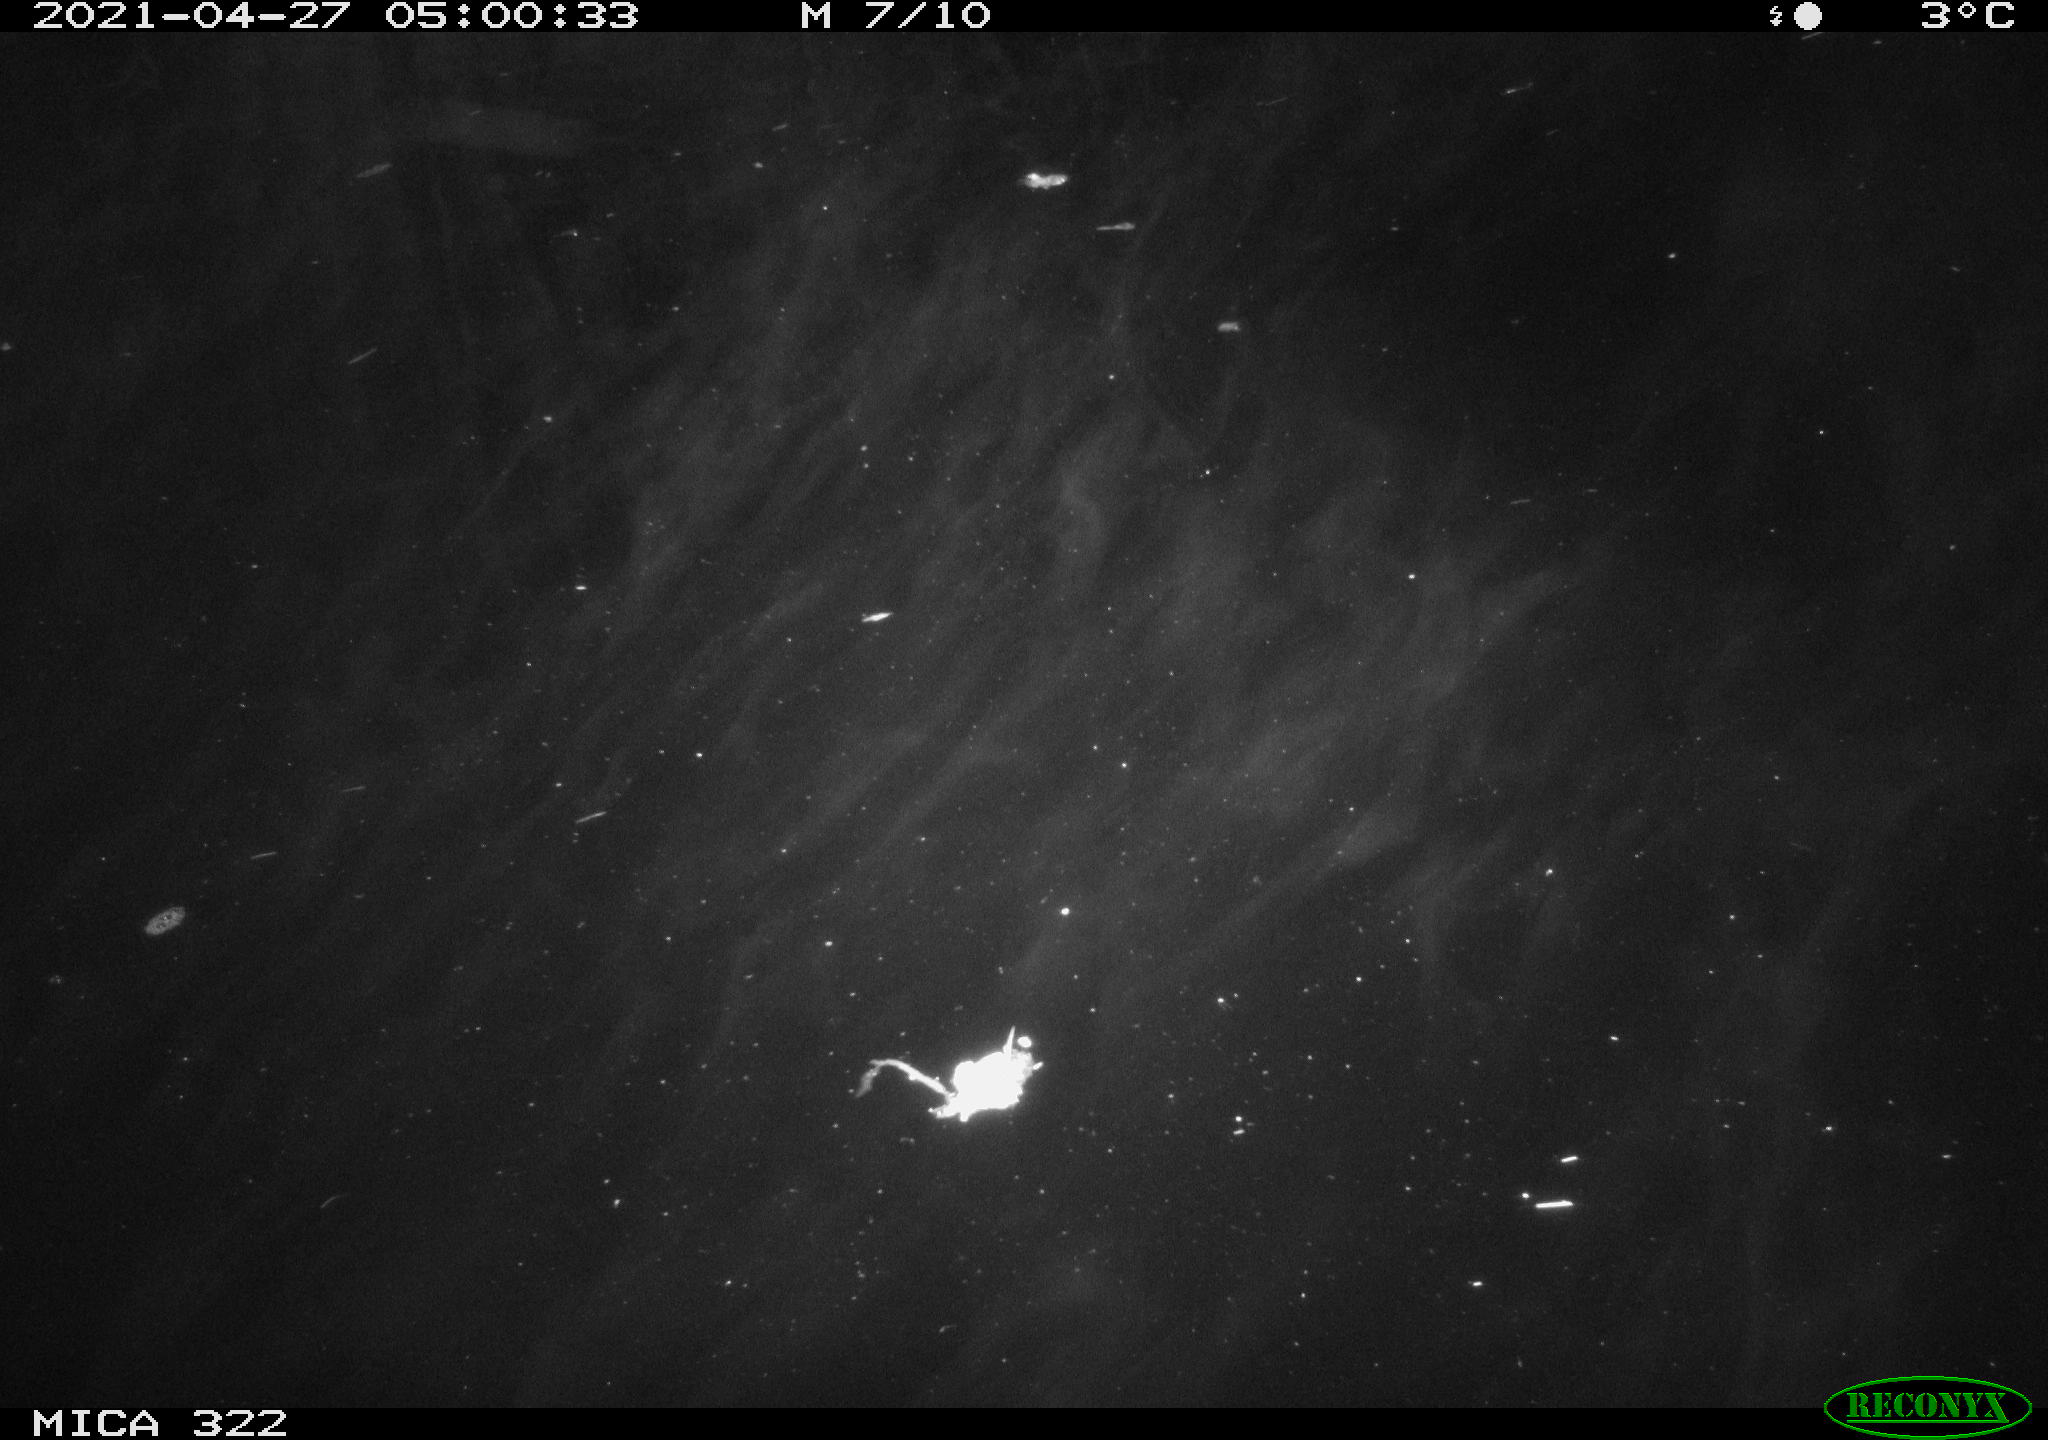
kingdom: Animalia
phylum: Chordata
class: Aves
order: Gruiformes
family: Rallidae
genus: Fulica
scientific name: Fulica atra
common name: Eurasian coot
